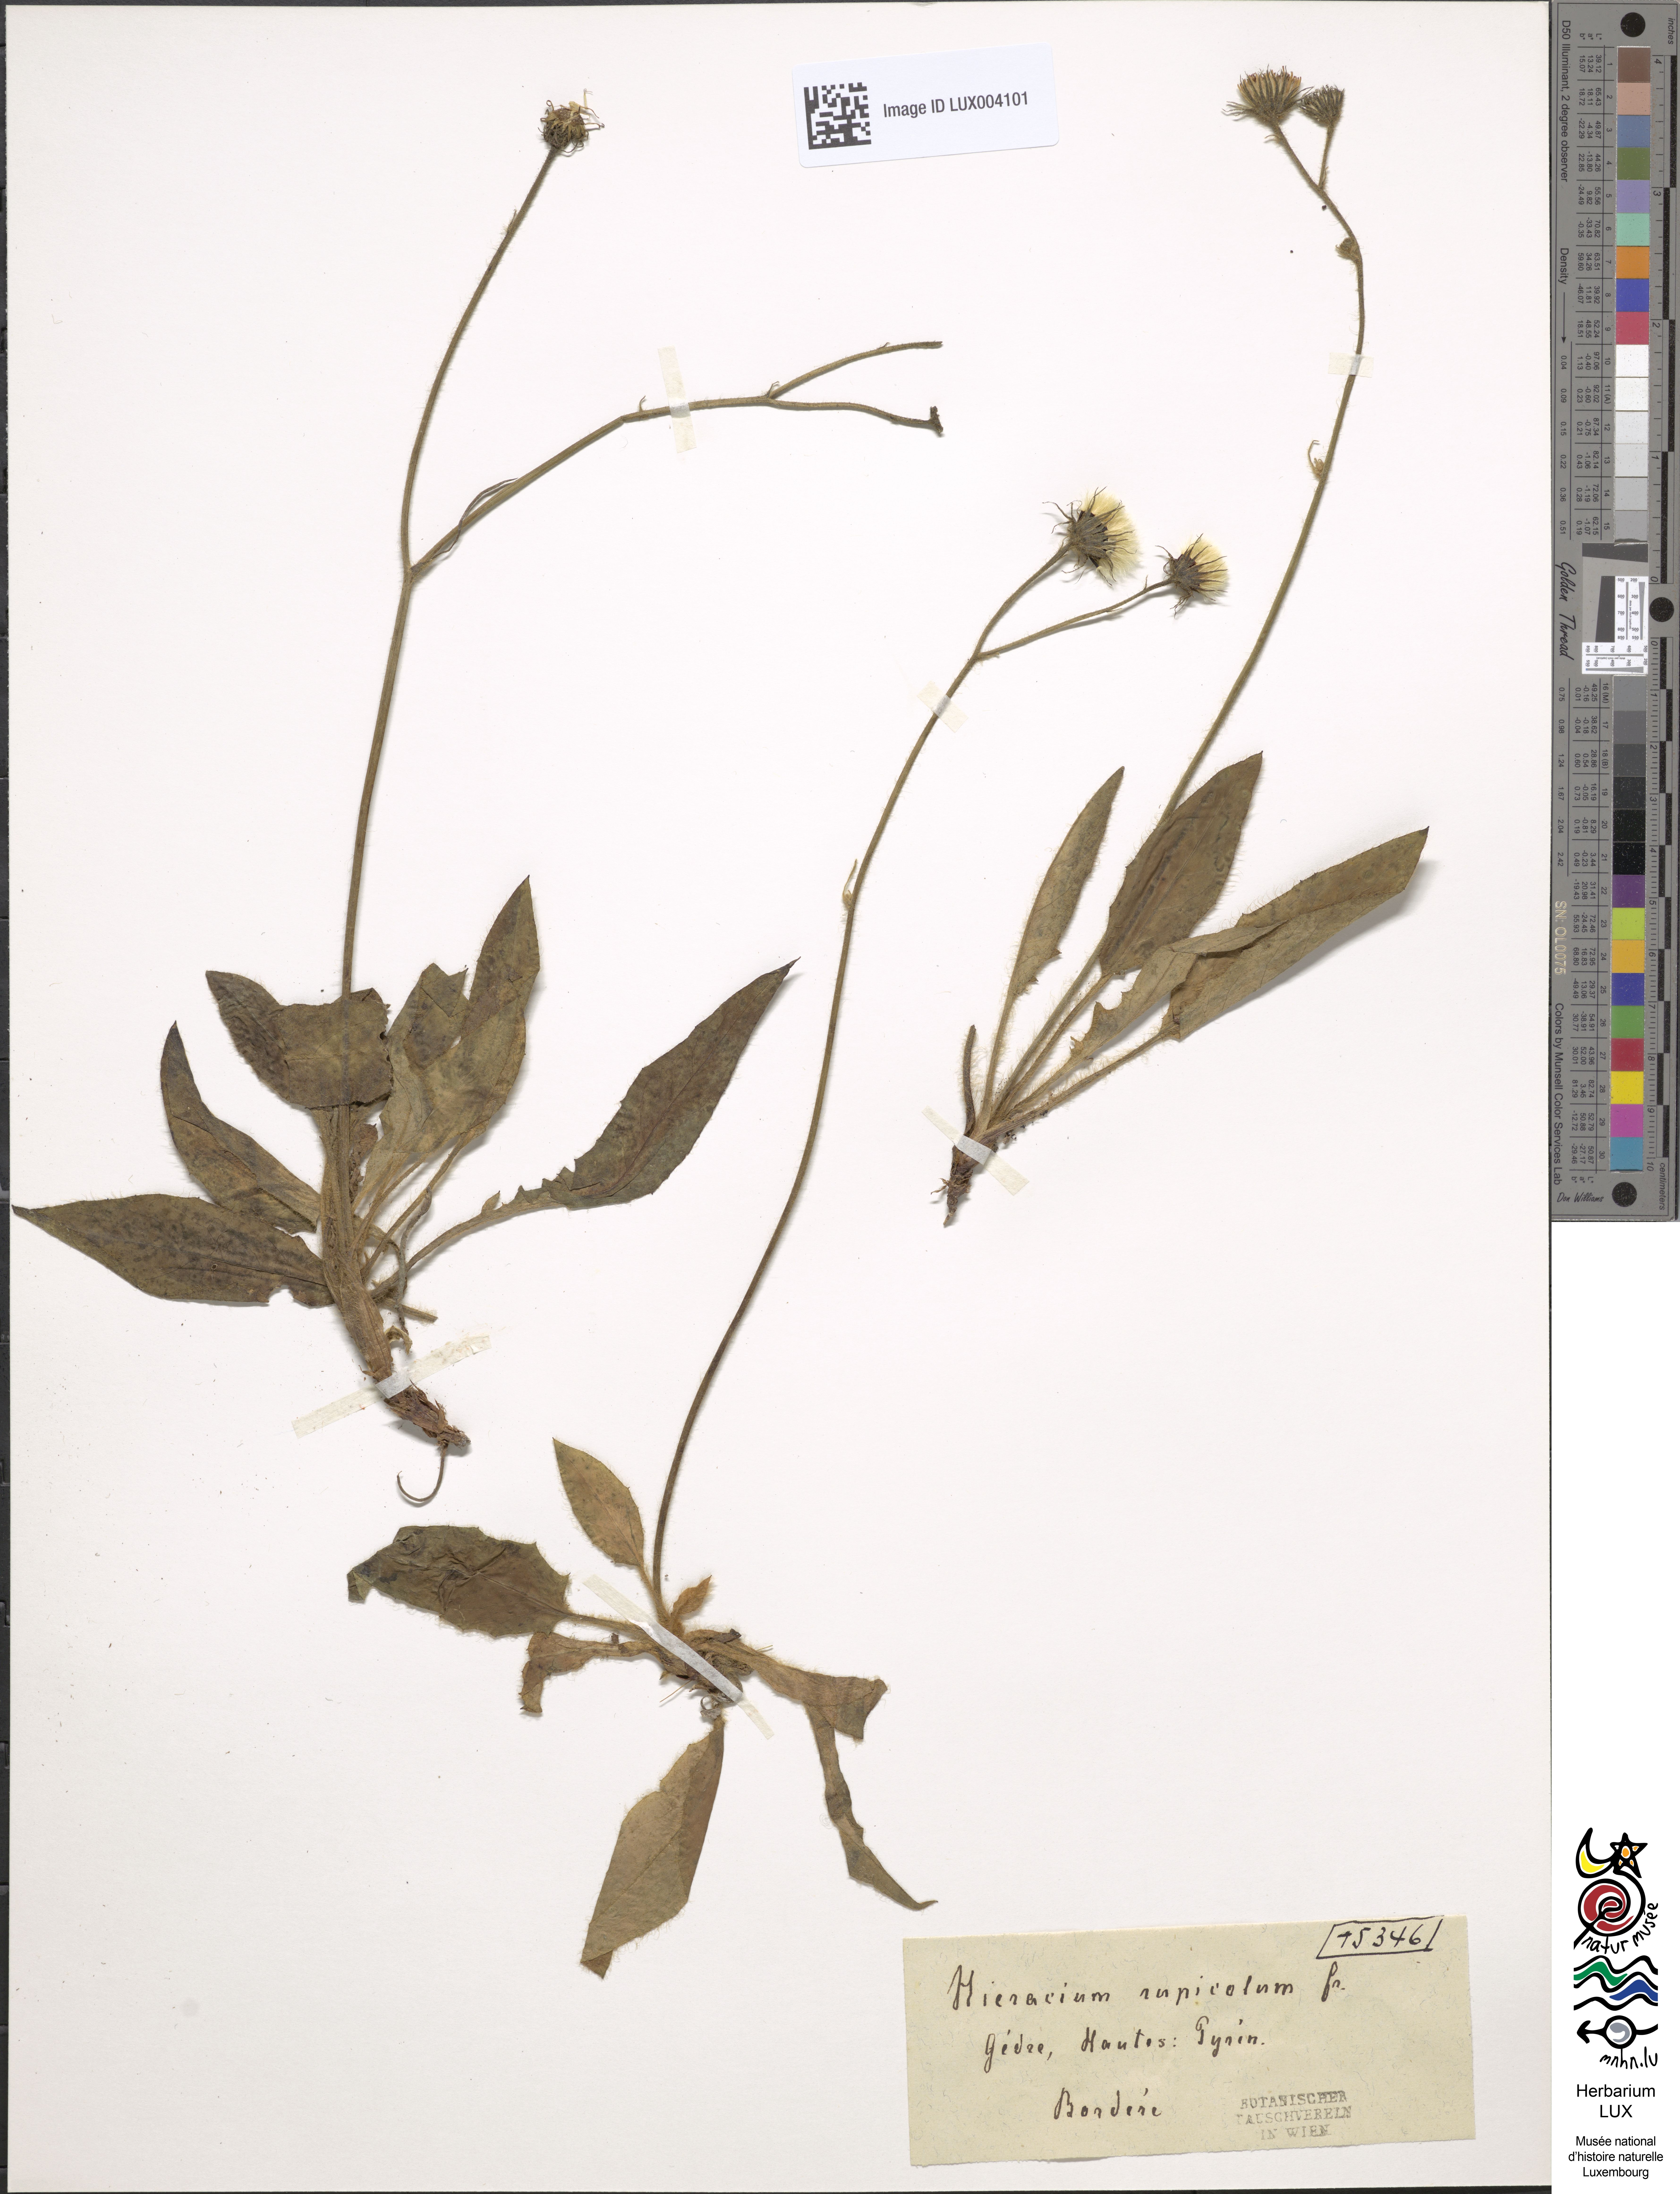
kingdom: Plantae
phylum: Tracheophyta
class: Magnoliopsida
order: Asterales
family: Asteraceae
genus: Hieracium
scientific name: Hieracium schmidtii
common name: Schmidt's hawkweed
